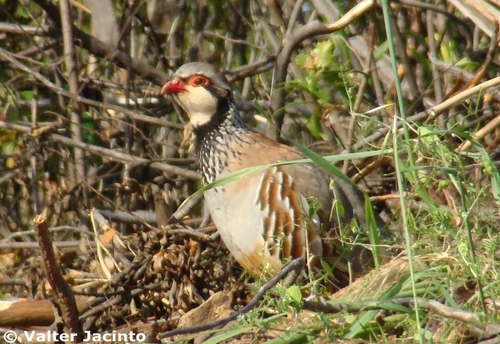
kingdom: Animalia
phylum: Chordata
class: Aves
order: Galliformes
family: Phasianidae
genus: Alectoris
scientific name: Alectoris rufa
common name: Red-legged partridge
